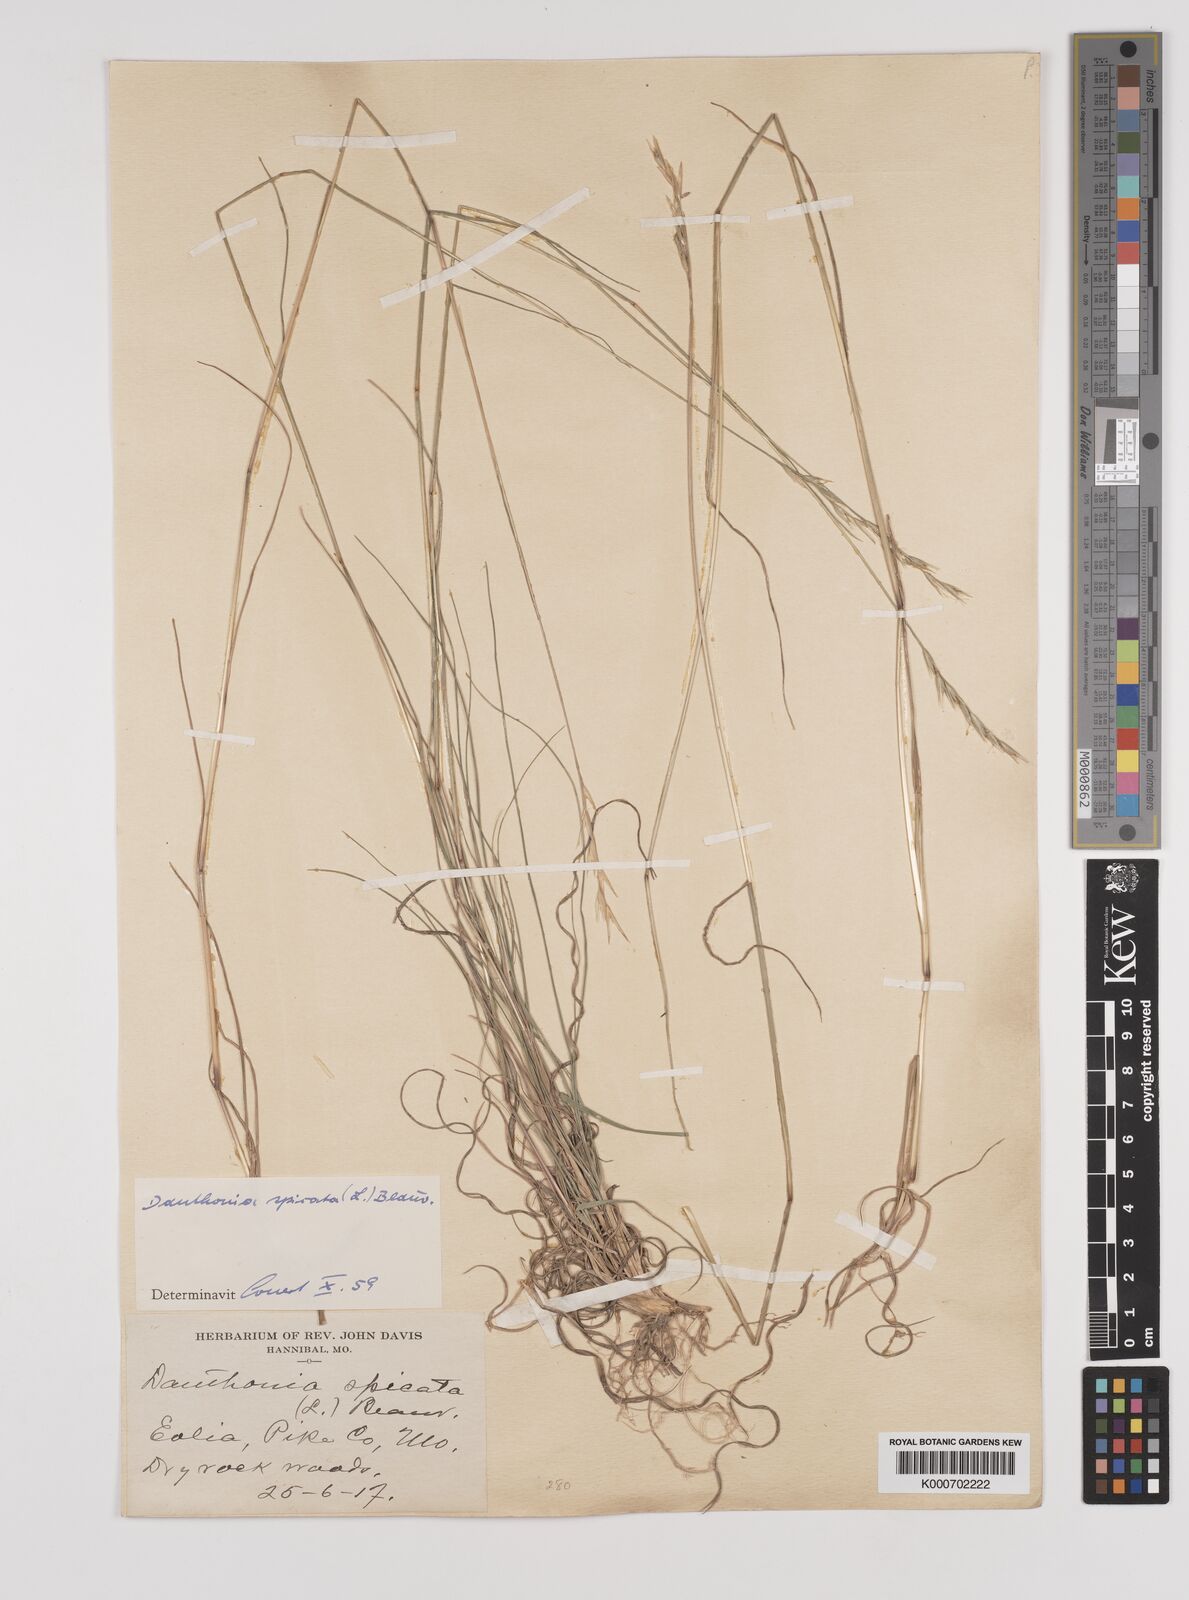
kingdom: Plantae
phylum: Tracheophyta
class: Liliopsida
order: Poales
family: Poaceae
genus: Danthonia
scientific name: Danthonia spicata
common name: Common wild oatgrass
